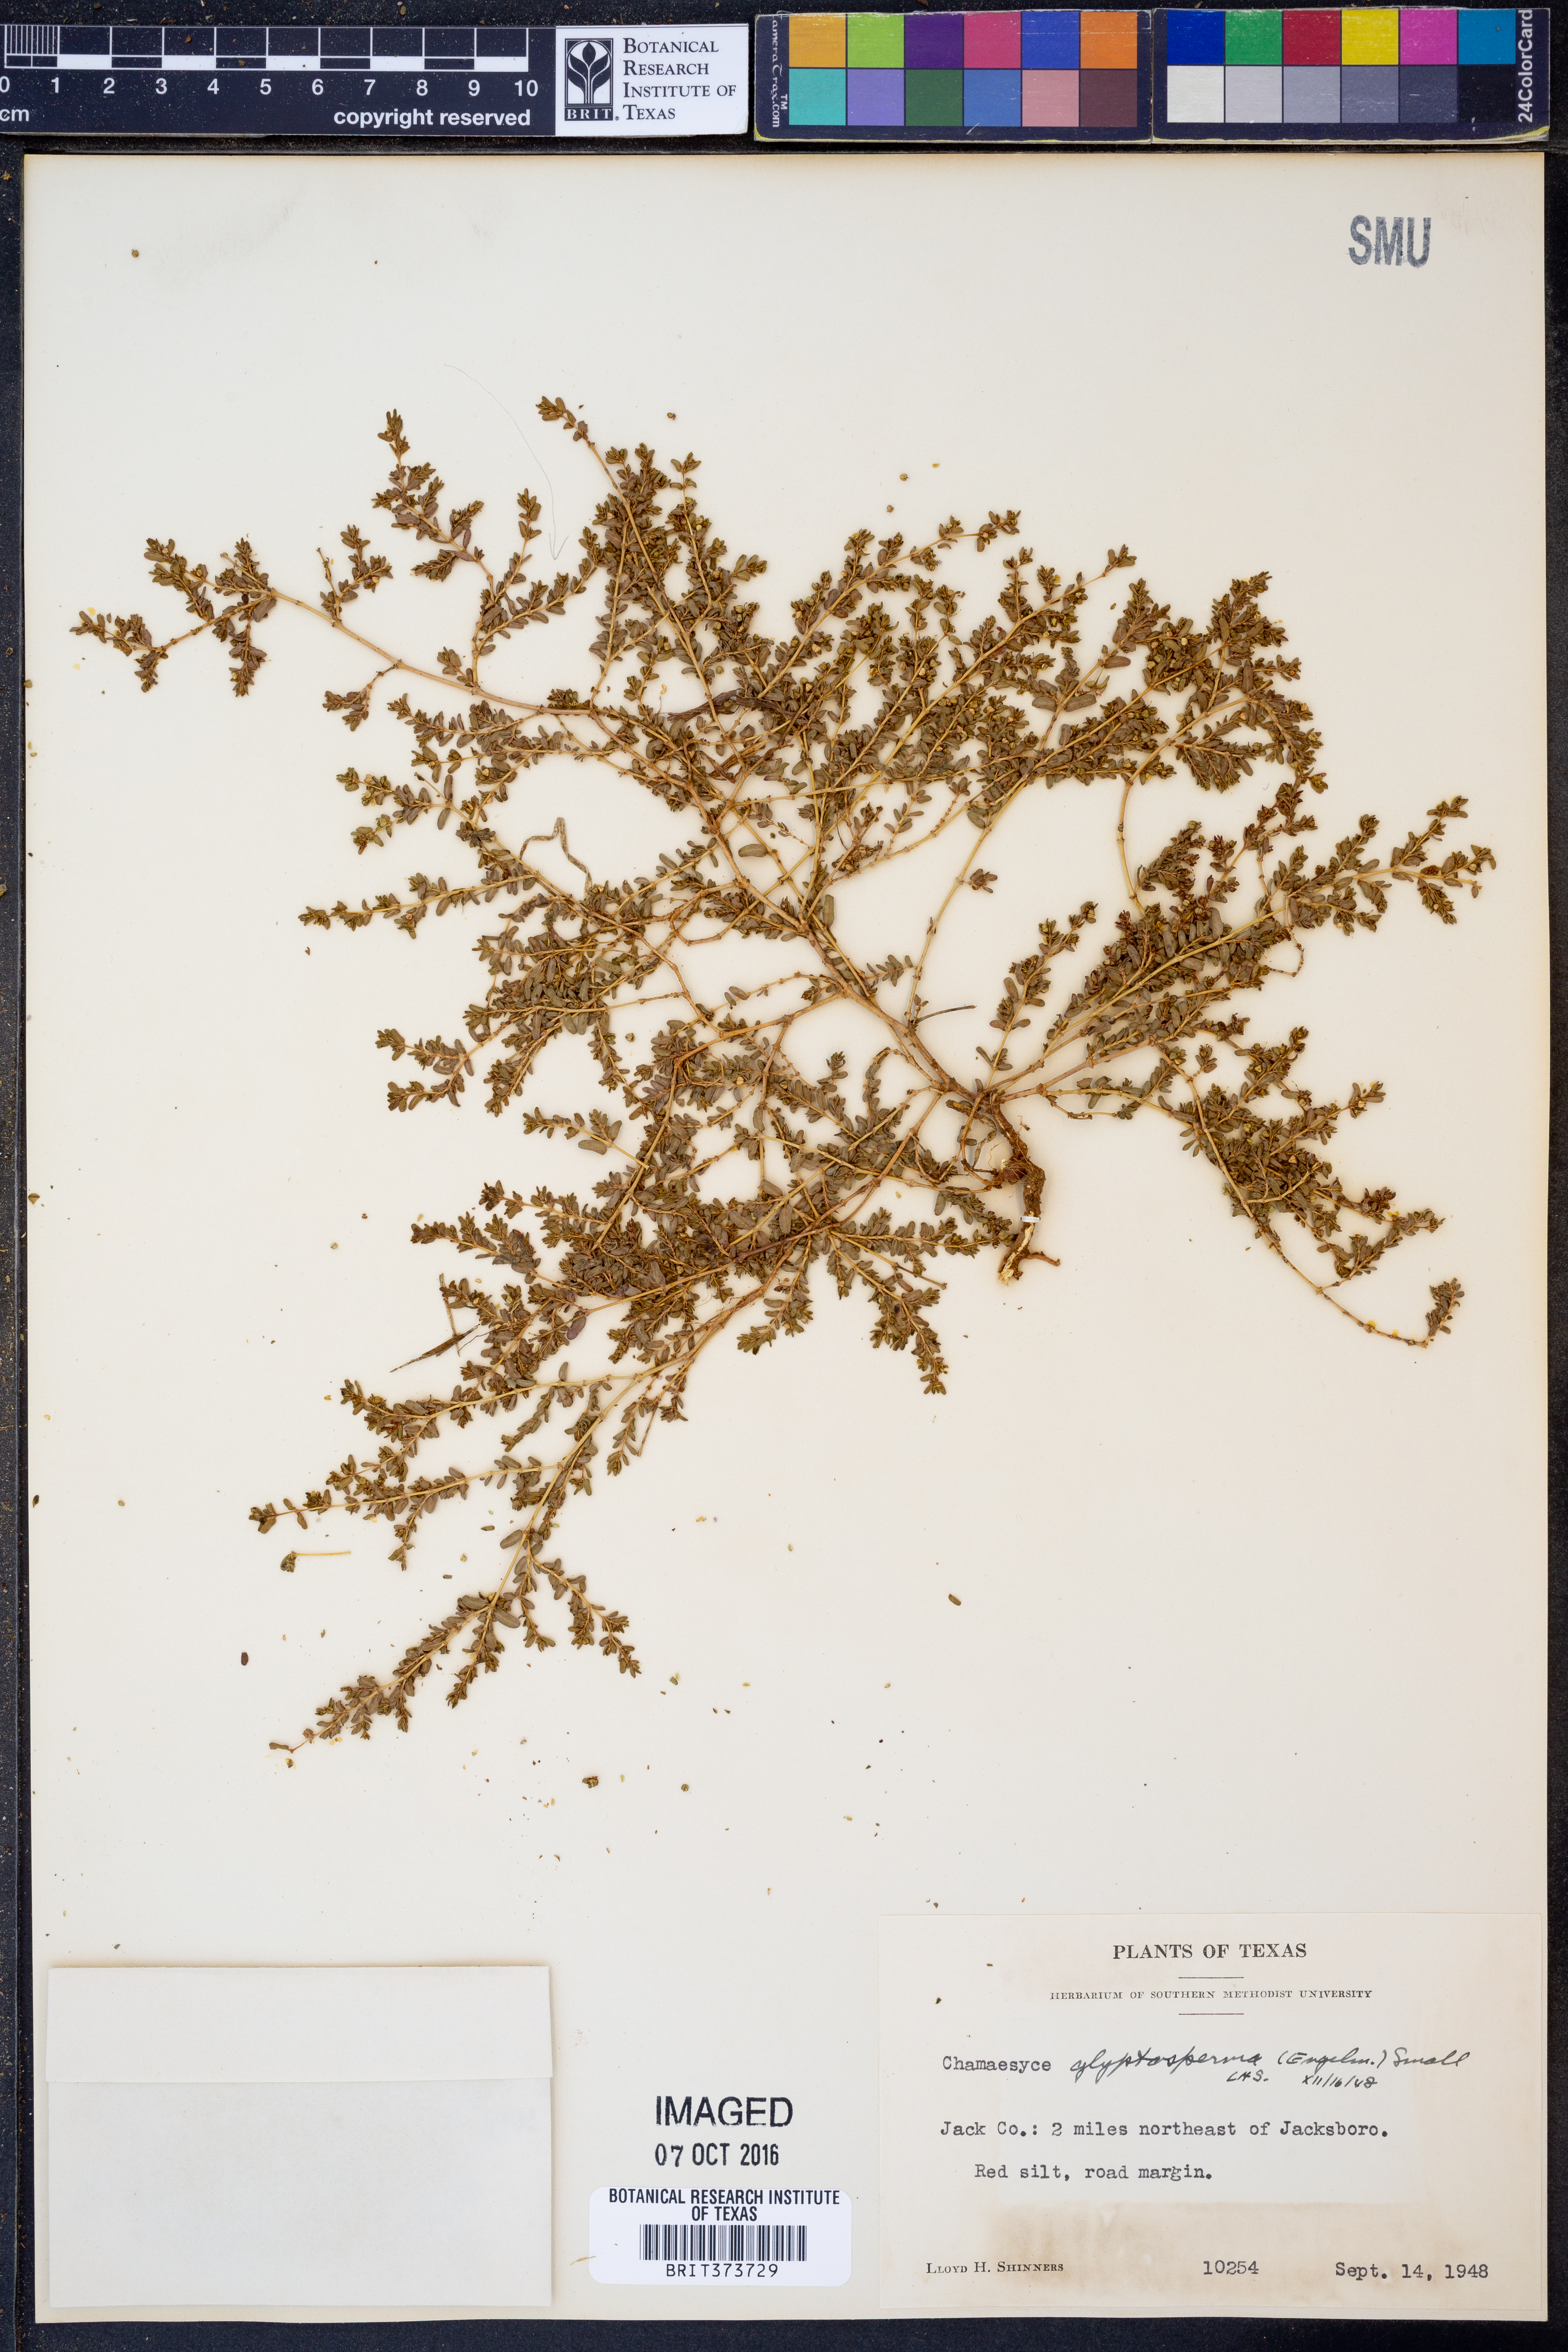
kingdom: Plantae
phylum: Tracheophyta
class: Magnoliopsida
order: Malpighiales
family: Euphorbiaceae
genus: Euphorbia
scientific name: Euphorbia glyptosperma
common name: Corrugate-seeded spurge
